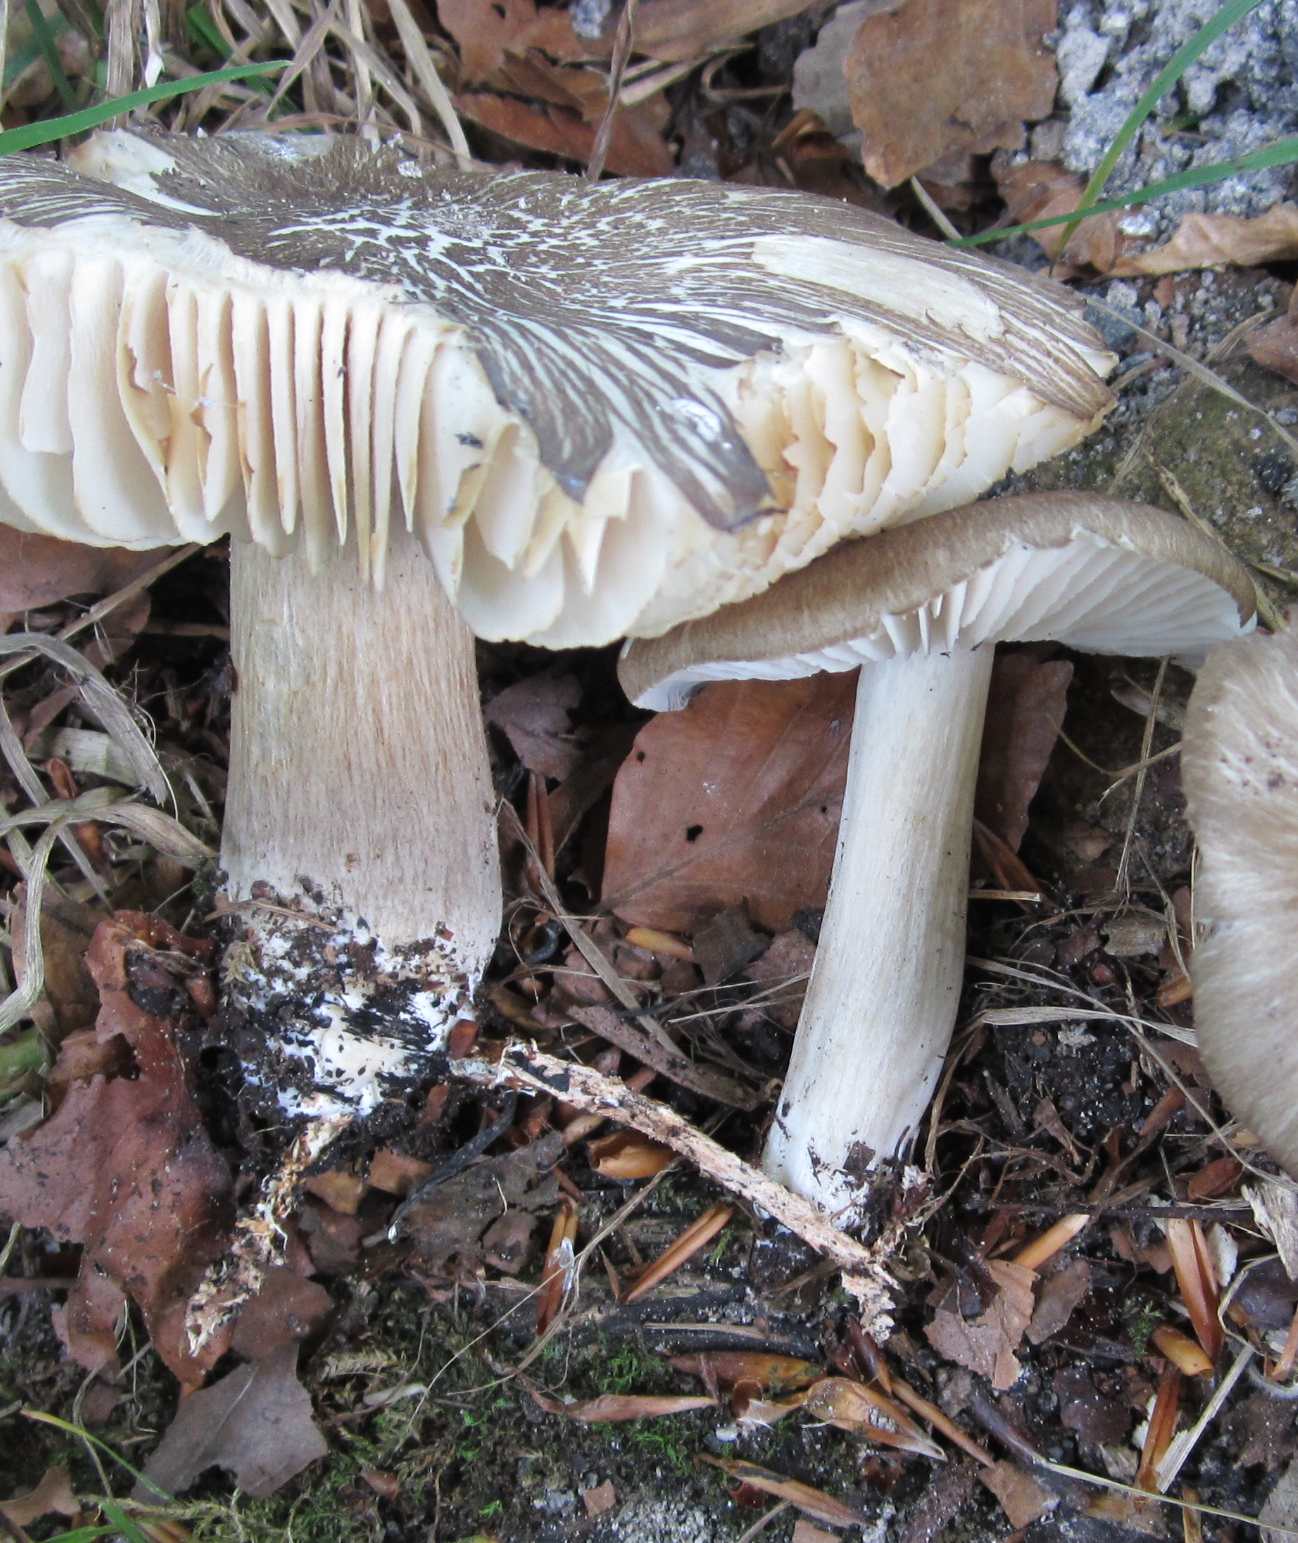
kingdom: Fungi
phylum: Basidiomycota
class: Agaricomycetes
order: Agaricales
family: Tricholomataceae
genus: Megacollybia
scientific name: Megacollybia platyphylla
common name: bredbladet væbnerhat
